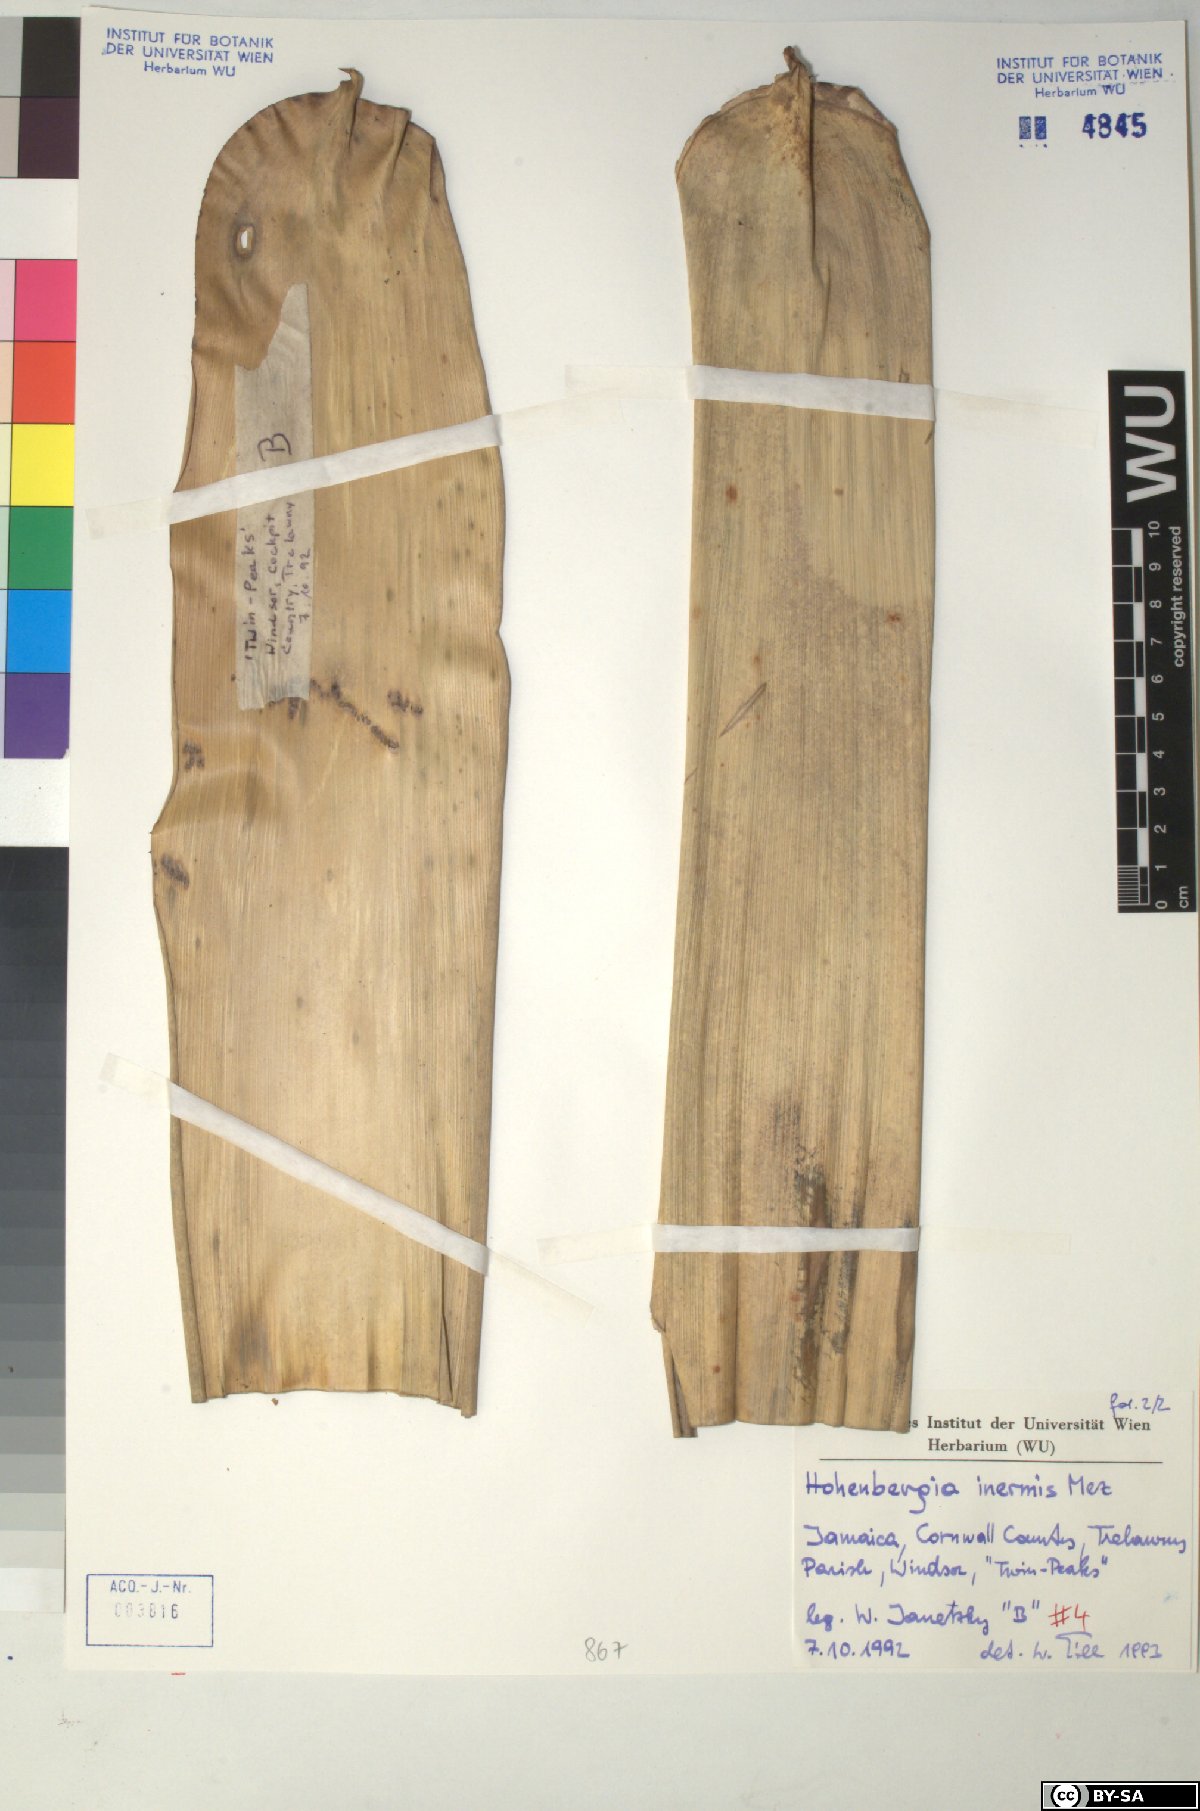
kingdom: Plantae
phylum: Tracheophyta
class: Liliopsida
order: Poales
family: Bromeliaceae
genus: Wittmackia
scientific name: Wittmackia inermis
